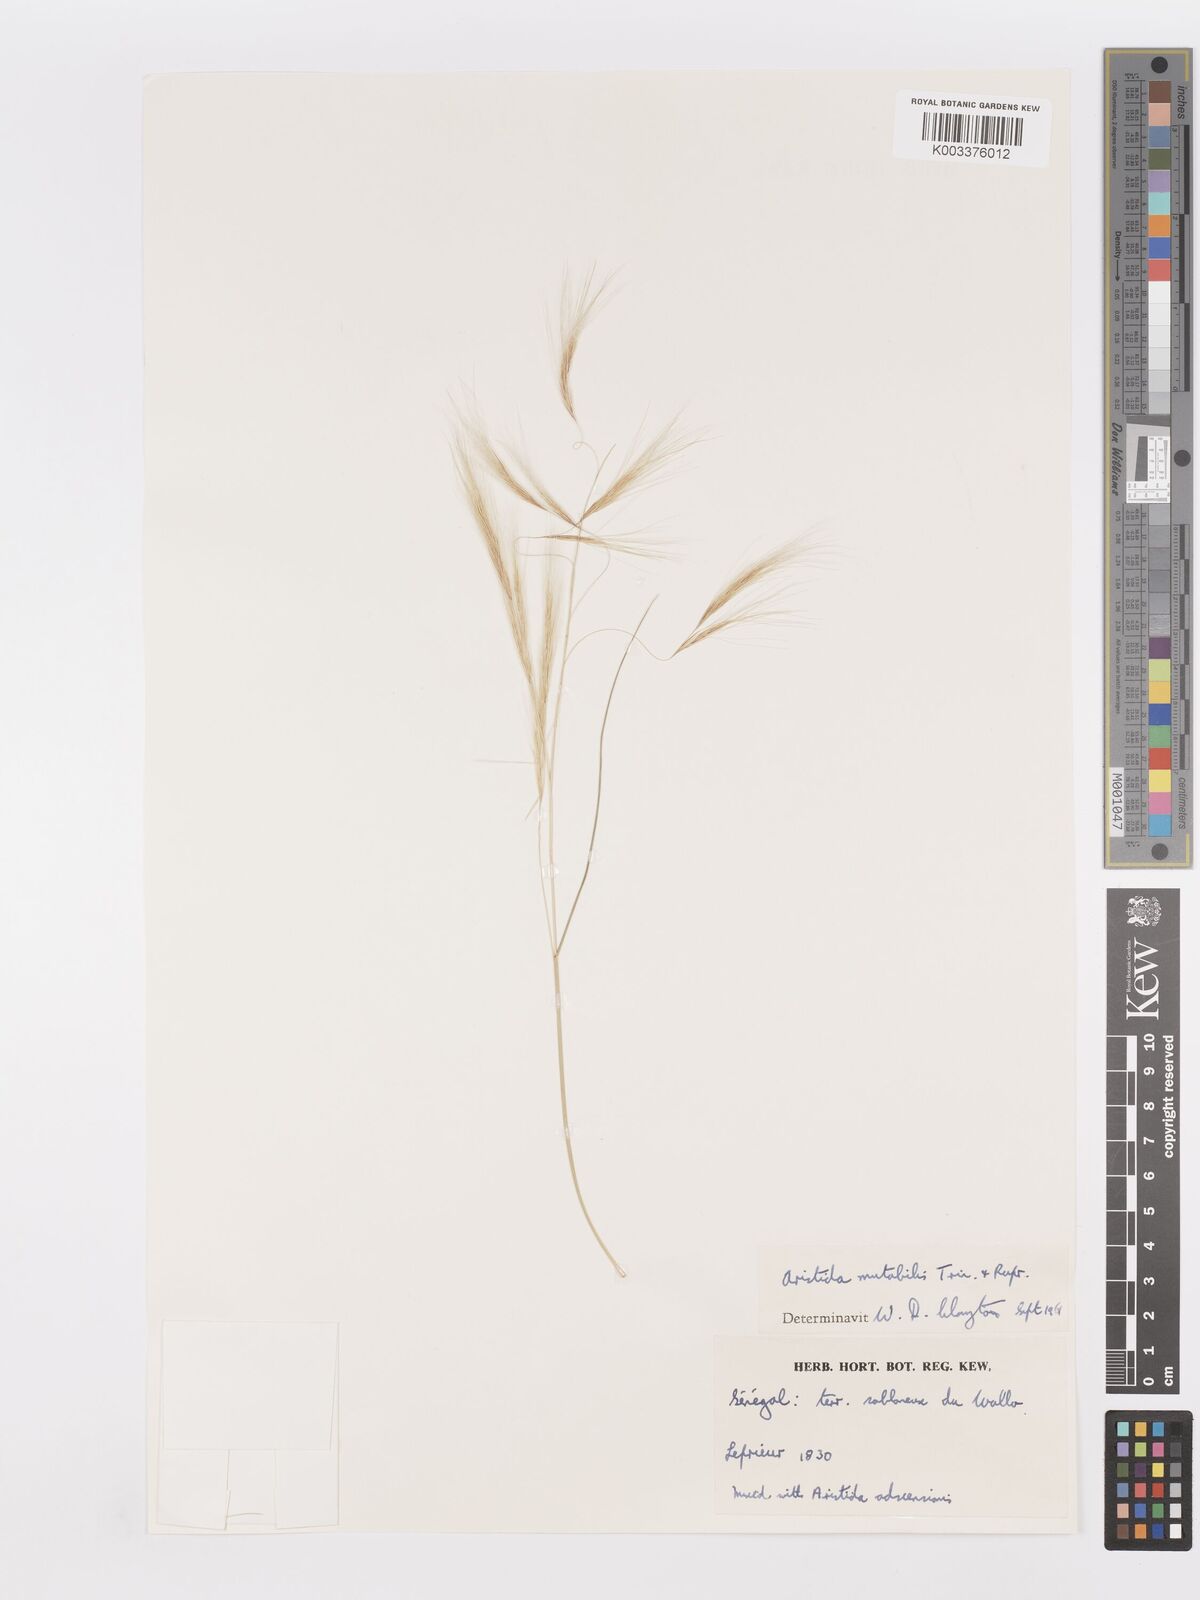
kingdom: Plantae
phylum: Tracheophyta
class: Liliopsida
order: Poales
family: Poaceae
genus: Aristida
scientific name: Aristida mutabilis
